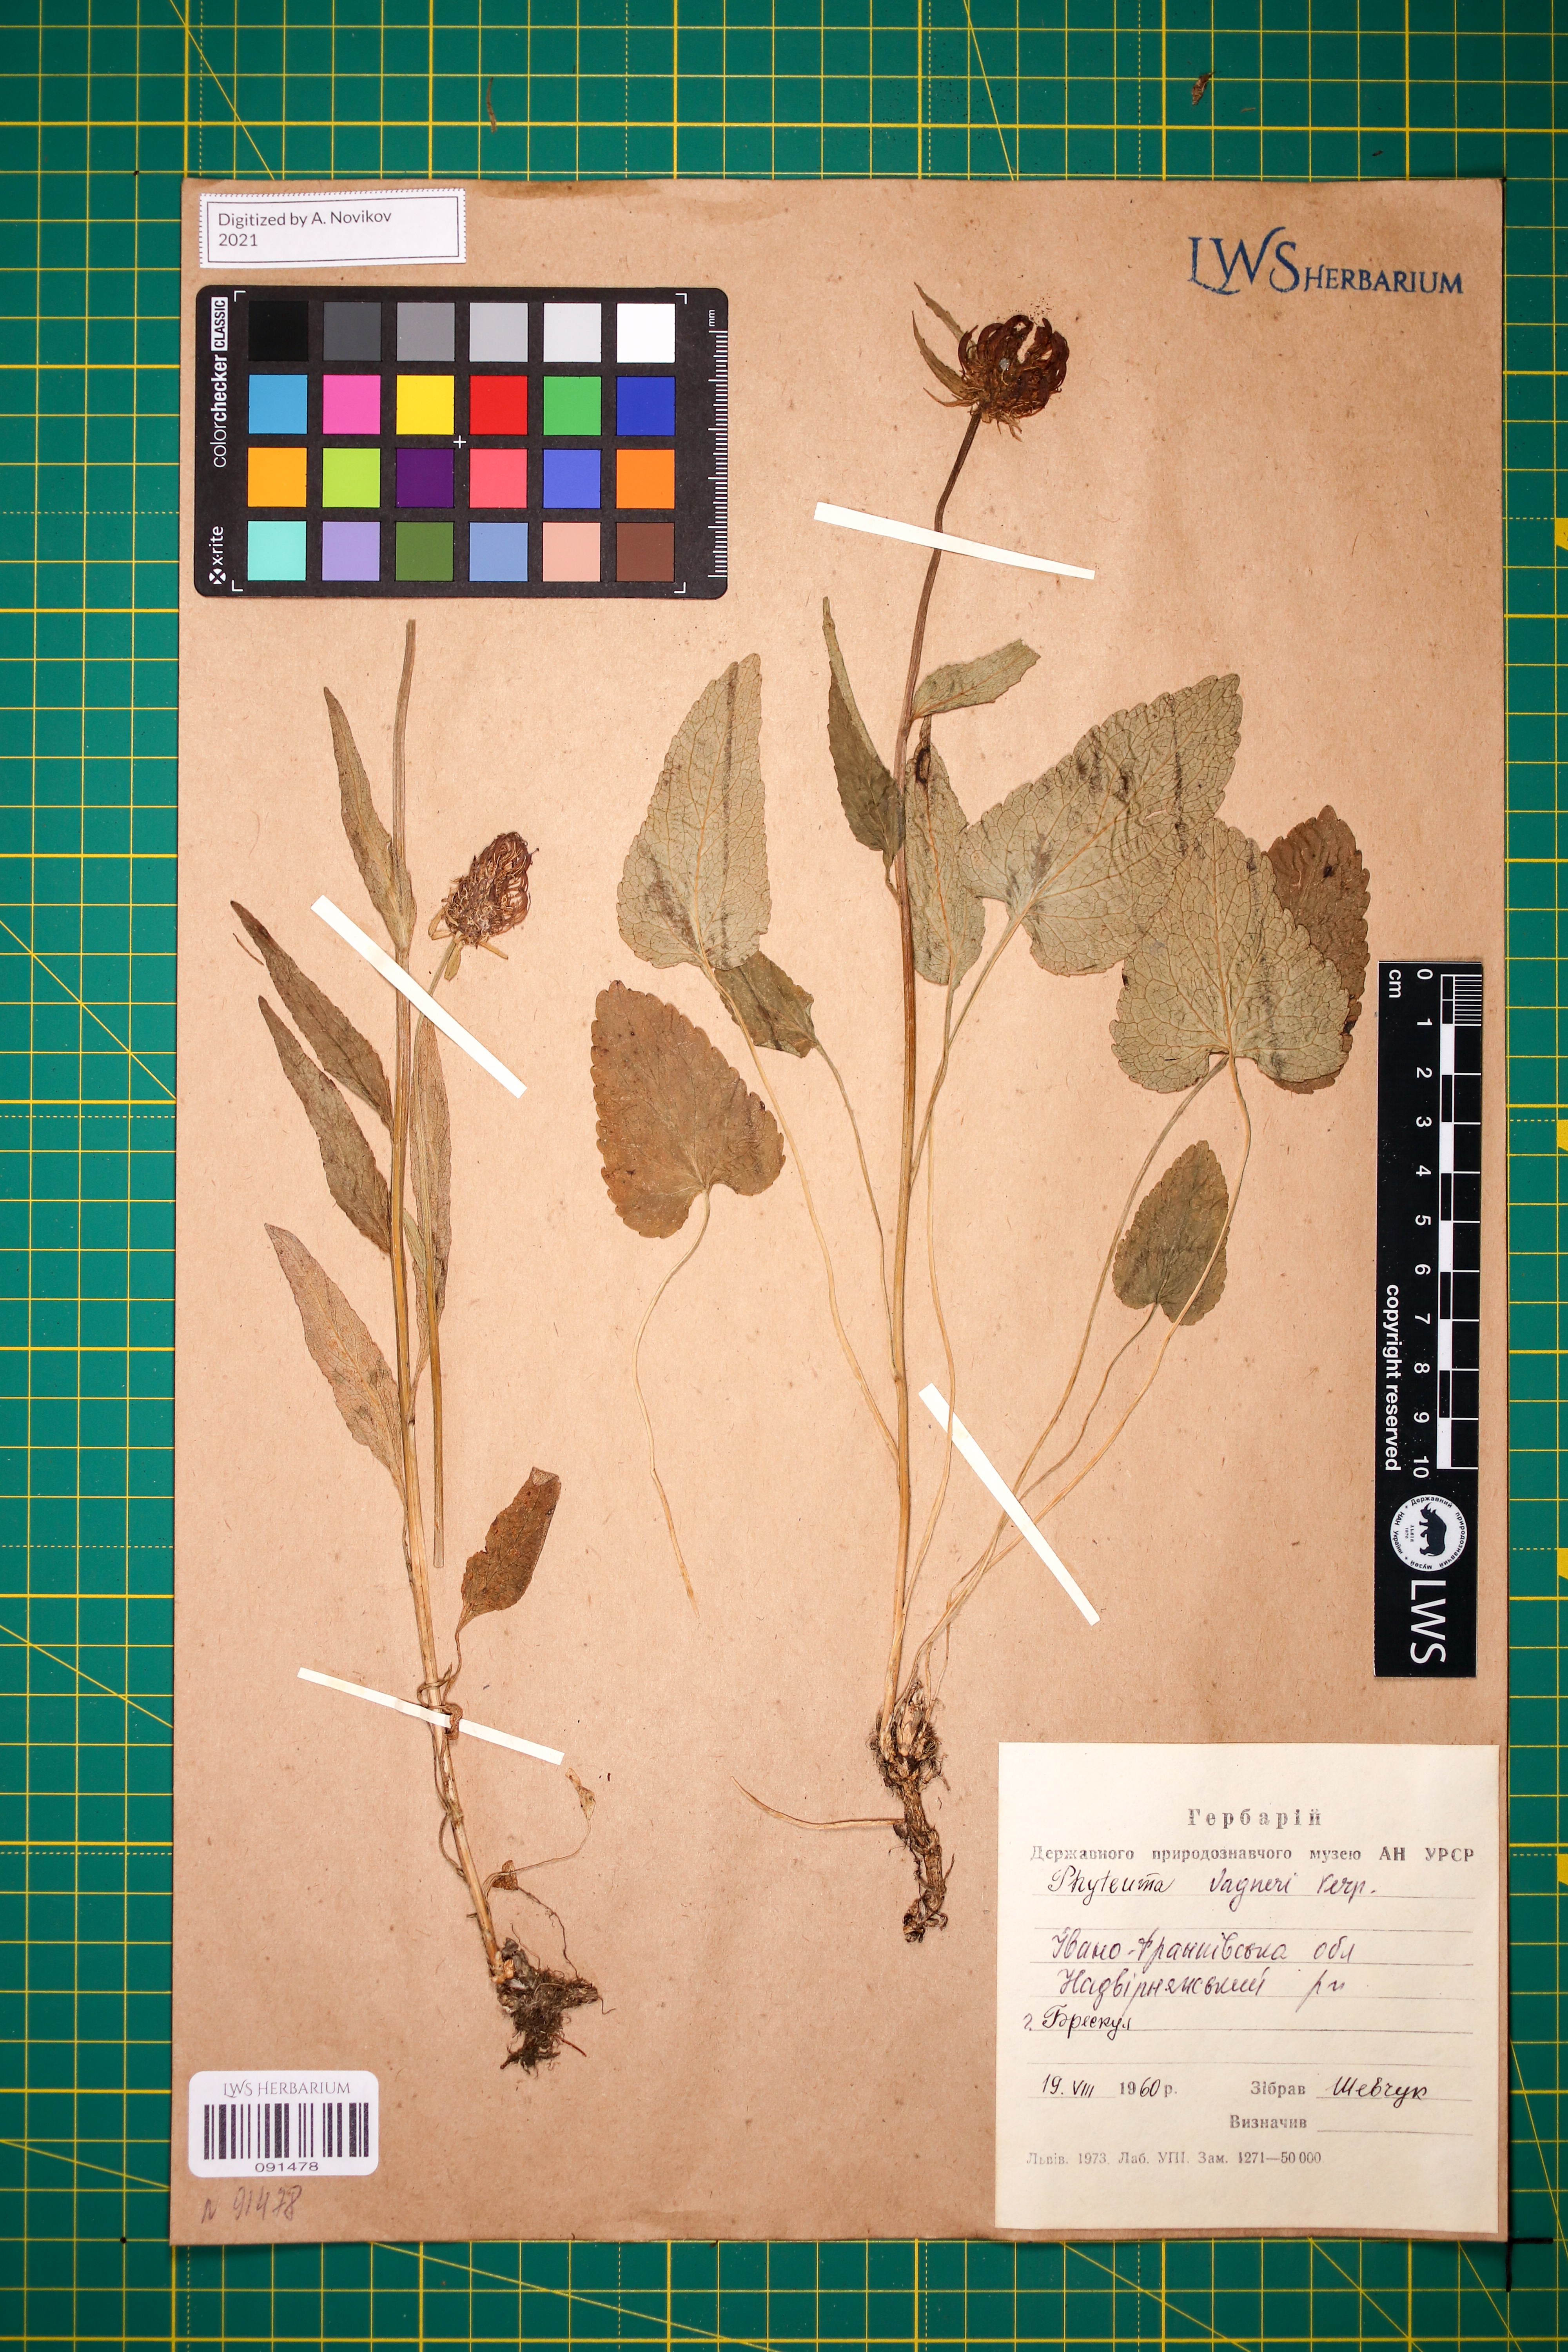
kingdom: Plantae
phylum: Tracheophyta
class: Magnoliopsida
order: Asterales
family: Campanulaceae
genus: Phyteuma
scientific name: Phyteuma vagneri
